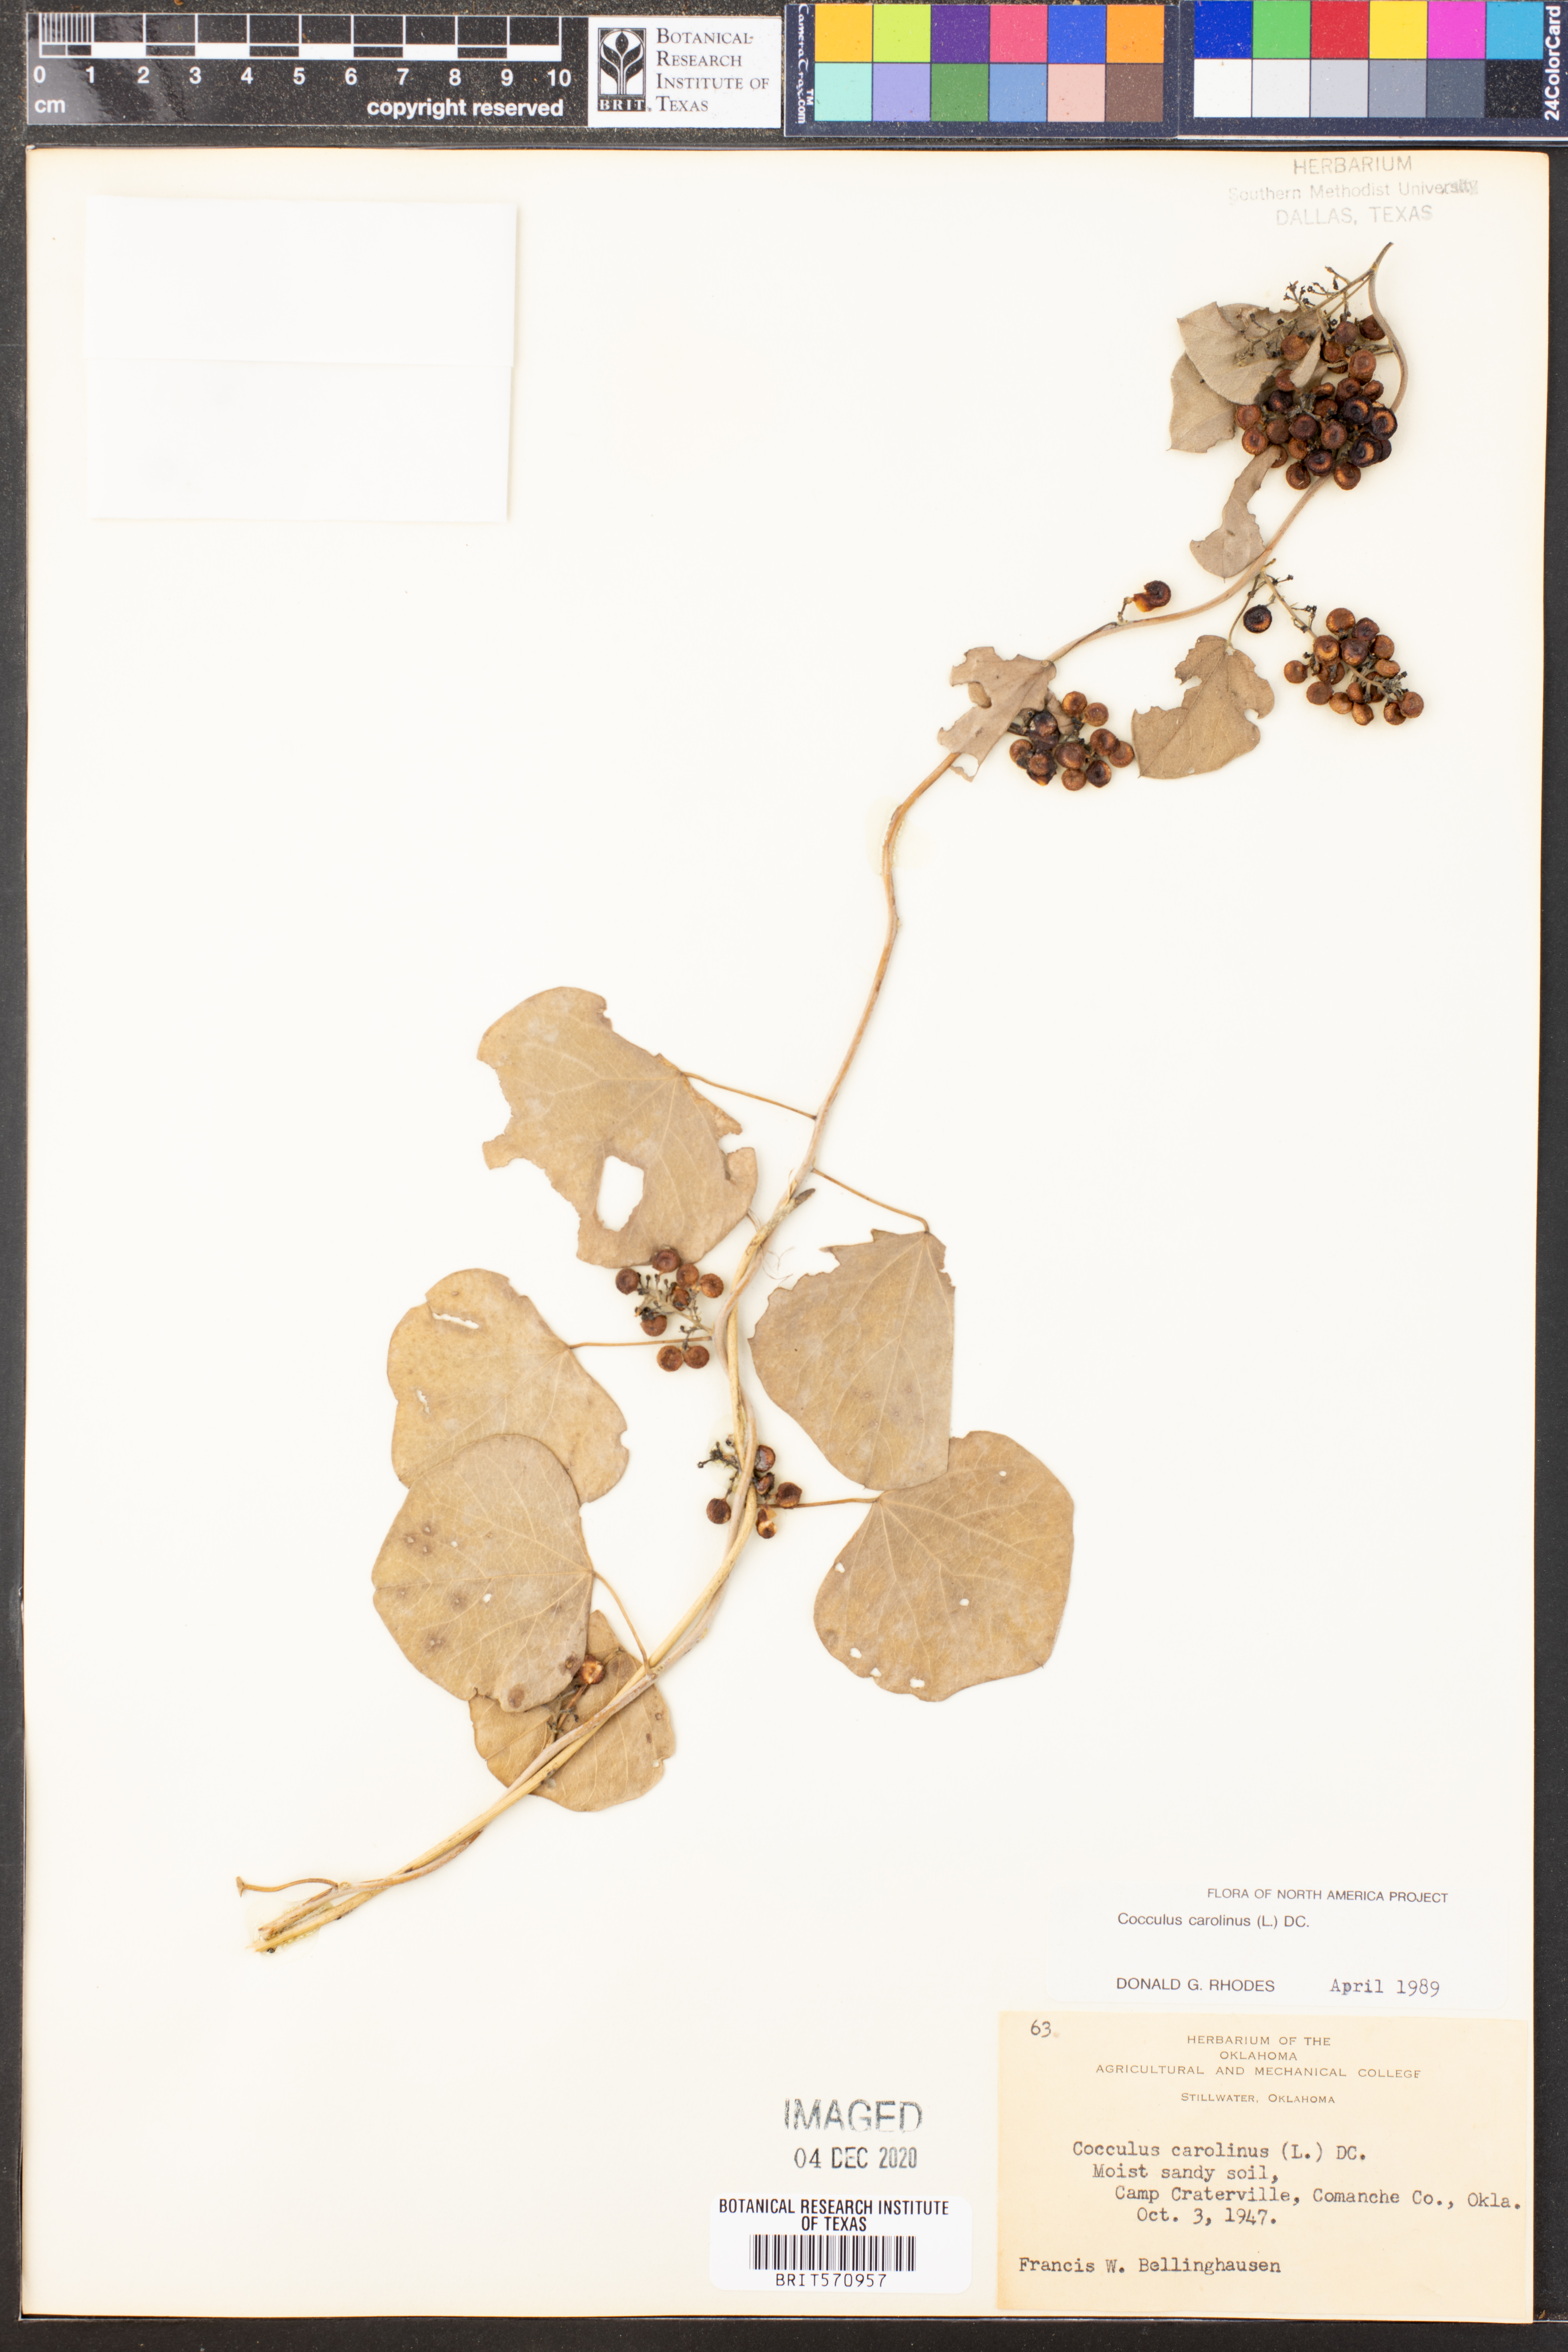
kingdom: Plantae
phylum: Tracheophyta
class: Magnoliopsida
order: Ranunculales
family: Menispermaceae
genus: Cocculus
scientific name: Cocculus carolinus
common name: Carolina moonseed
